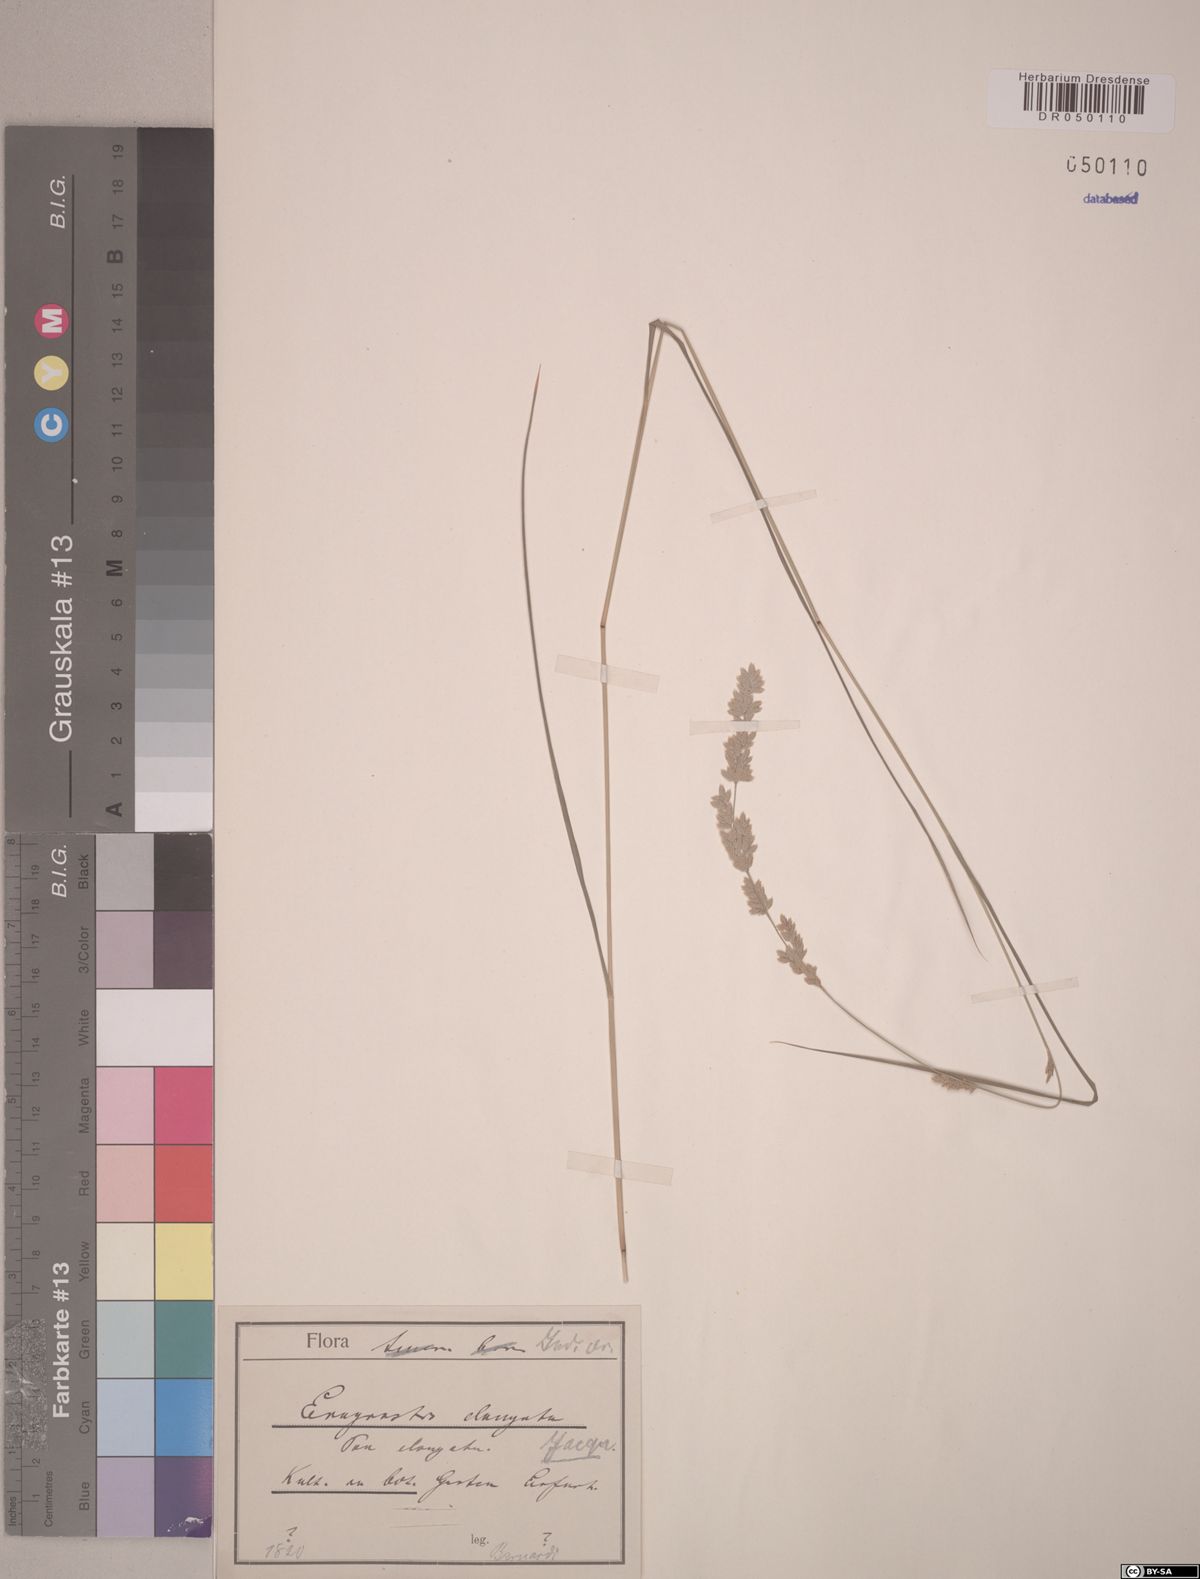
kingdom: Plantae
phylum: Tracheophyta
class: Liliopsida
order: Poales
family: Poaceae
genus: Eragrostis
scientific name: Eragrostis elongata
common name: Long lovegrass
